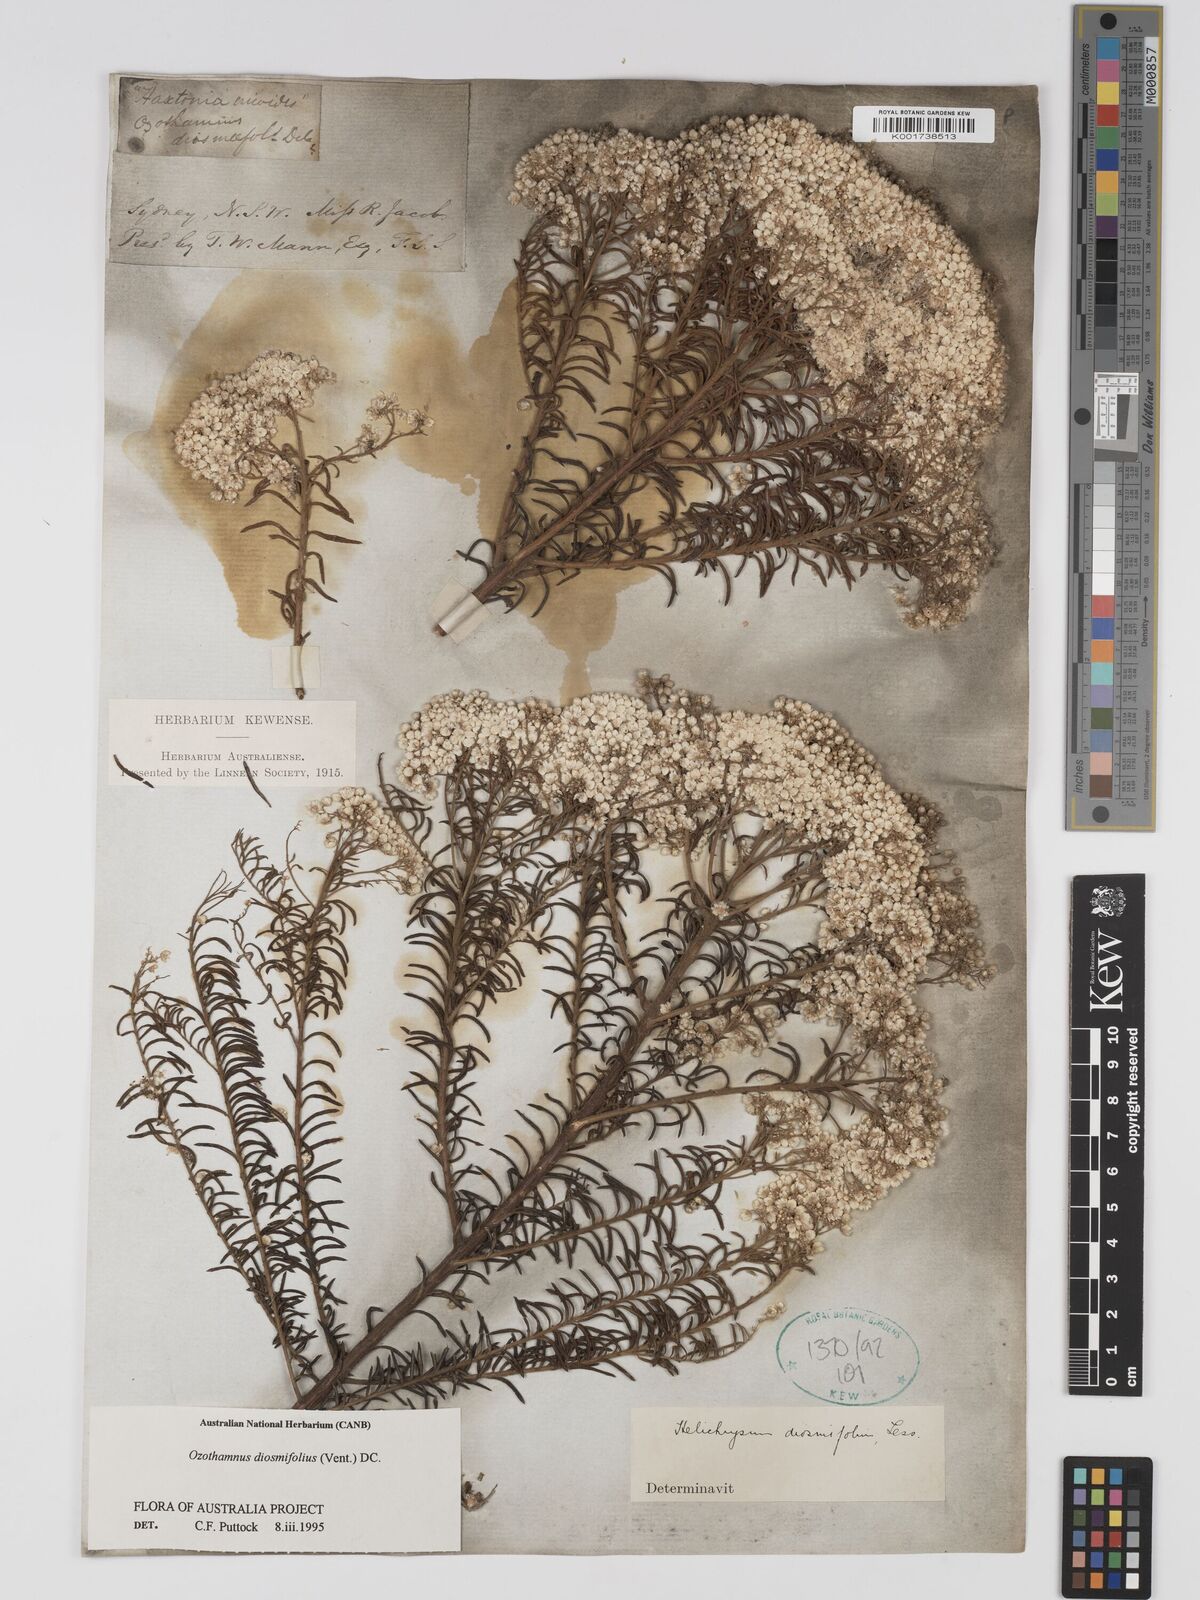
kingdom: Plantae
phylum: Tracheophyta
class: Magnoliopsida
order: Asterales
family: Asteraceae
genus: Ozothamnus
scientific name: Ozothamnus diosmifolius
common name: White-dogwood
